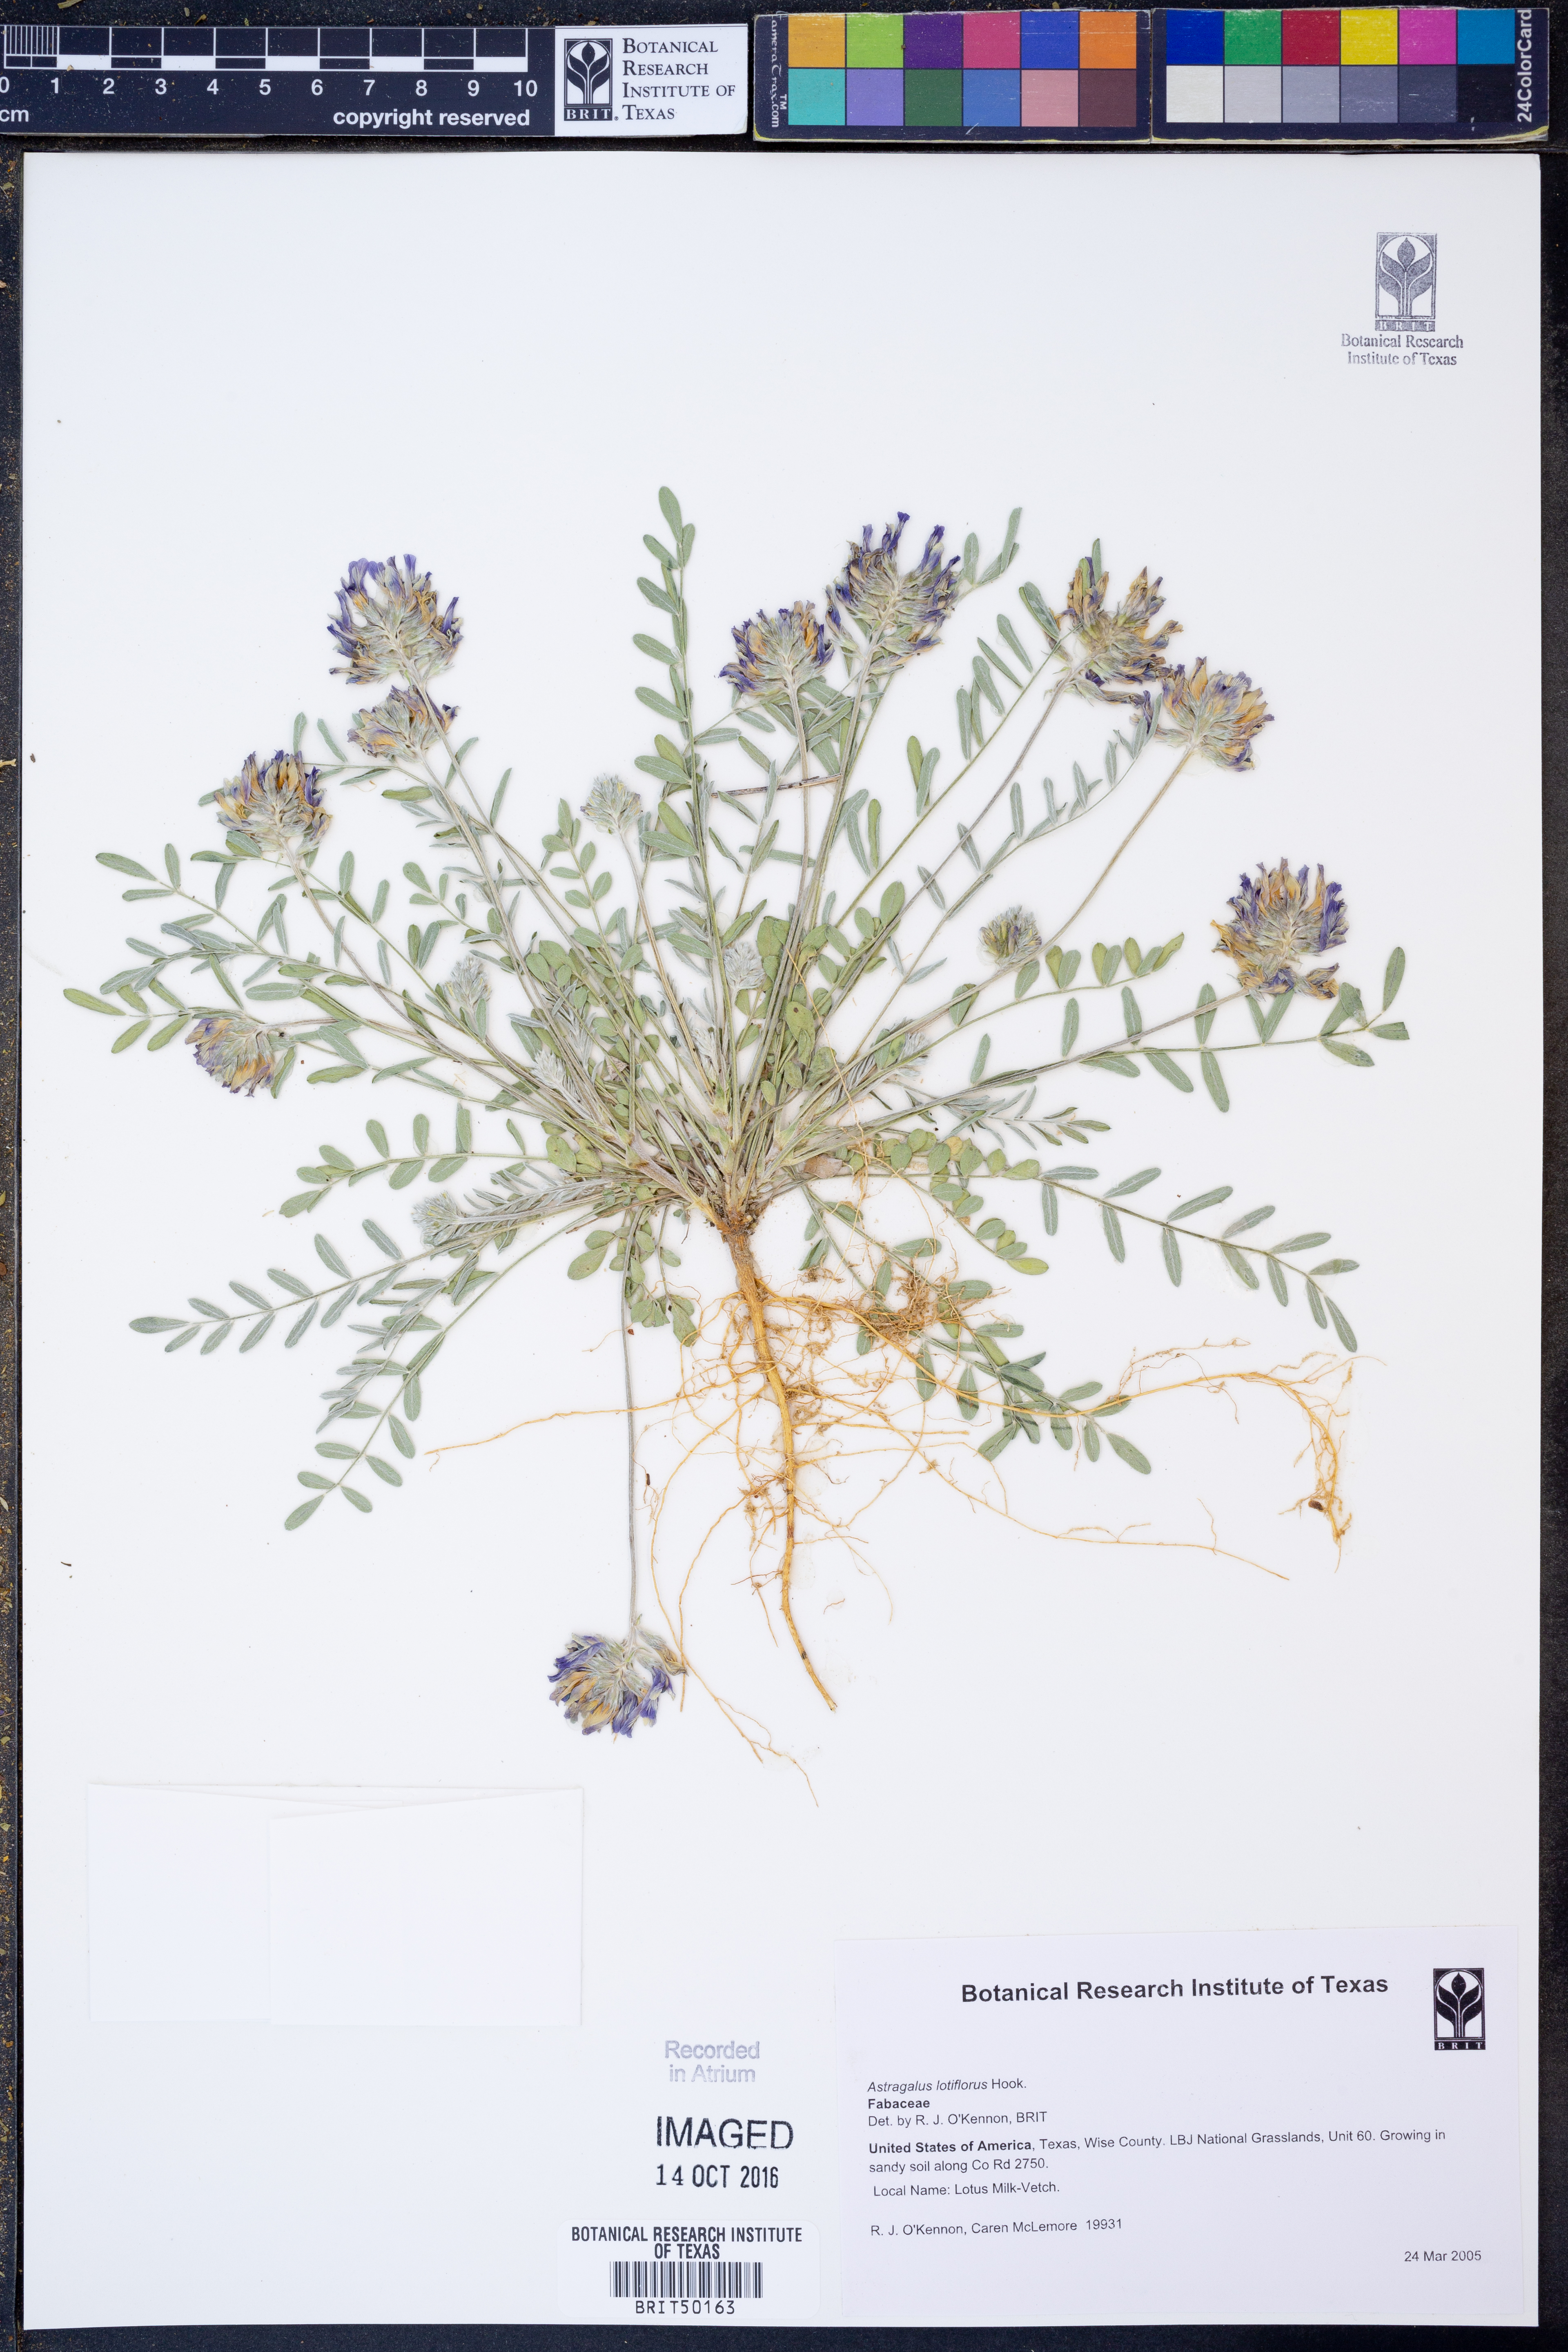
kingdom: Plantae
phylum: Tracheophyta
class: Magnoliopsida
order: Fabales
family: Fabaceae
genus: Astragalus
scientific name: Astragalus lotiflorus
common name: Lotus milk-vetch
